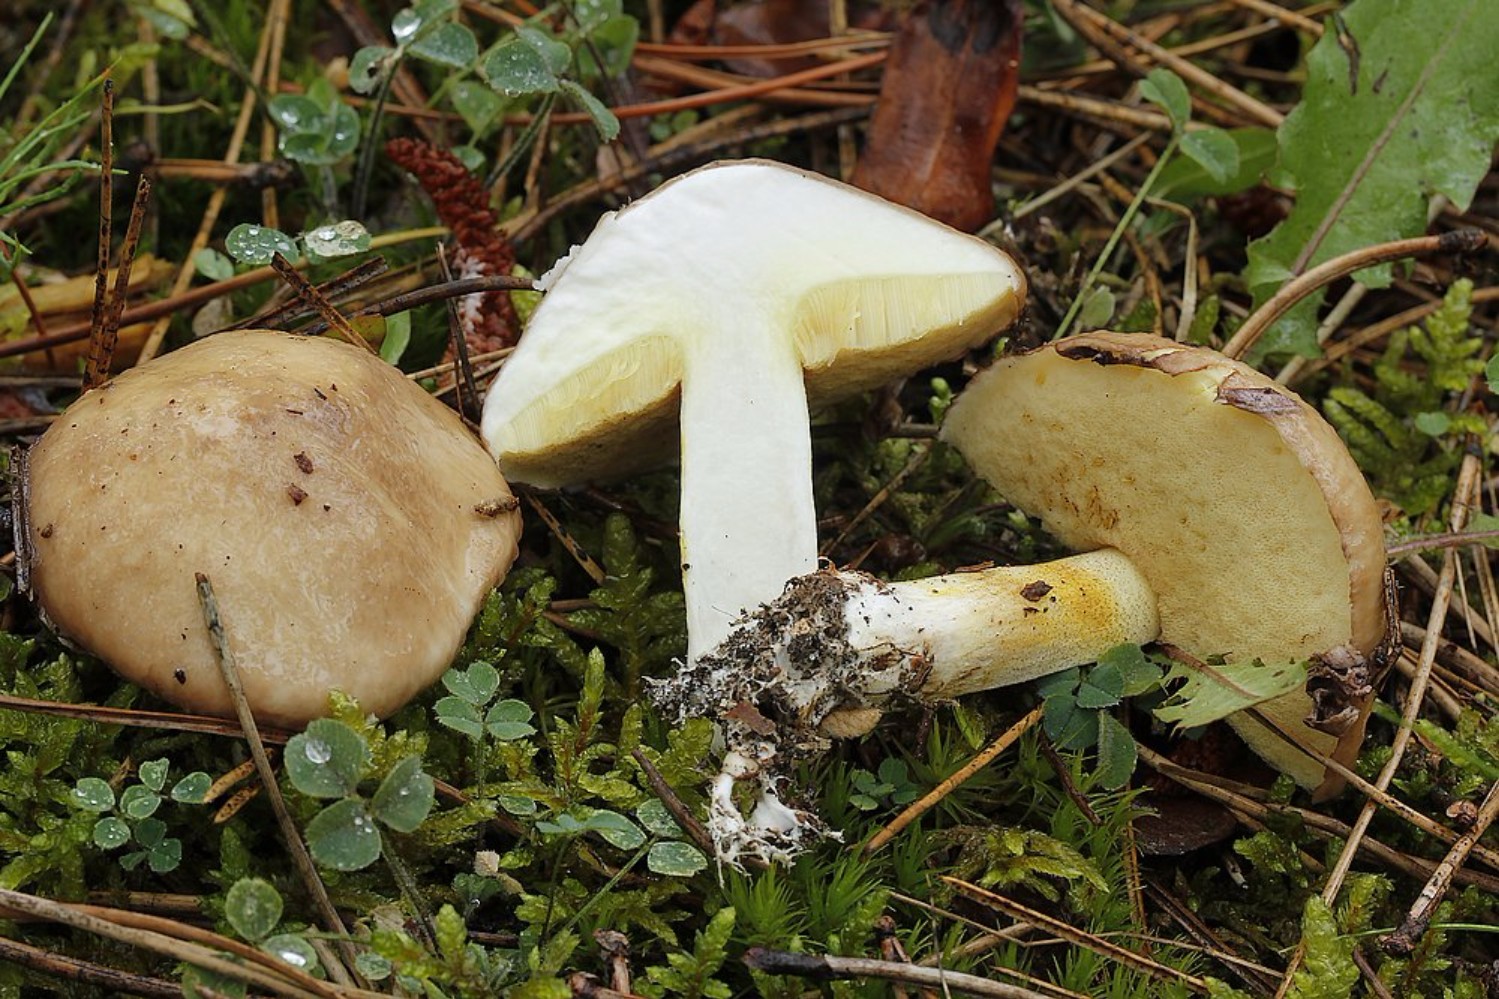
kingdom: Fungi
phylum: Basidiomycota
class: Agaricomycetes
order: Boletales
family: Suillaceae
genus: Suillus
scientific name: Suillus granulatus
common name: kornet slimrørhat
